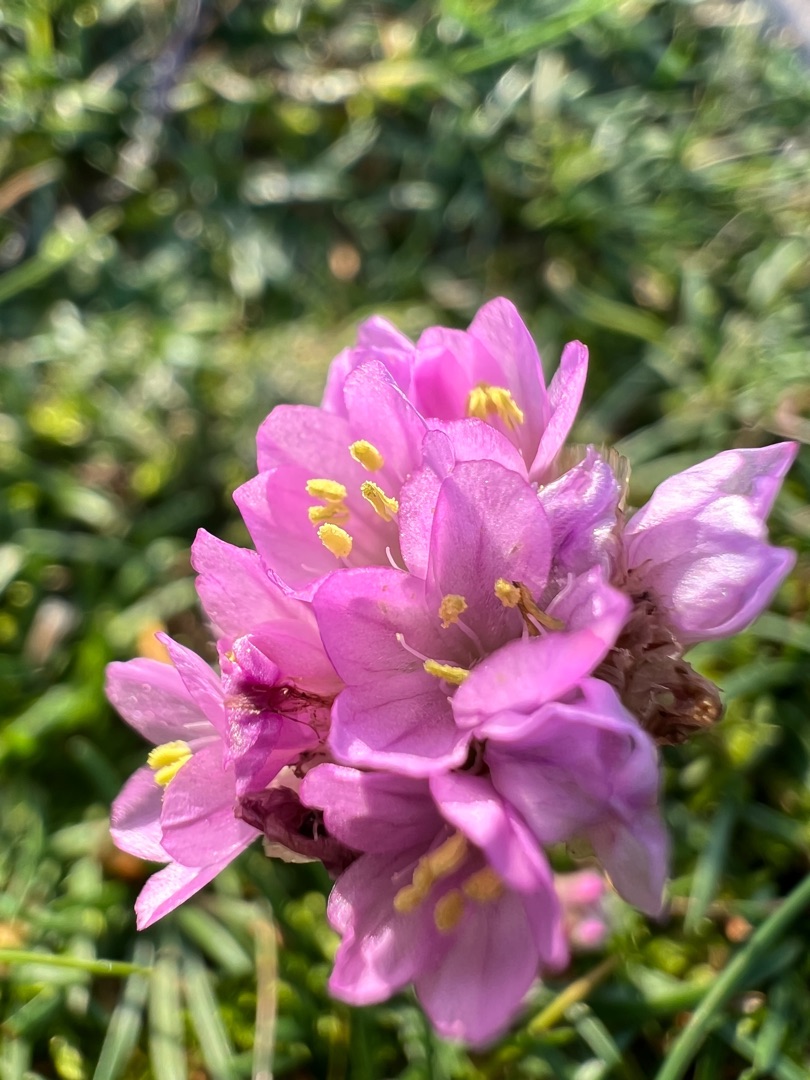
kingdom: Plantae
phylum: Tracheophyta
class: Magnoliopsida
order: Caryophyllales
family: Plumbaginaceae
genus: Armeria
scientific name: Armeria maritima
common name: Engelskgræs
